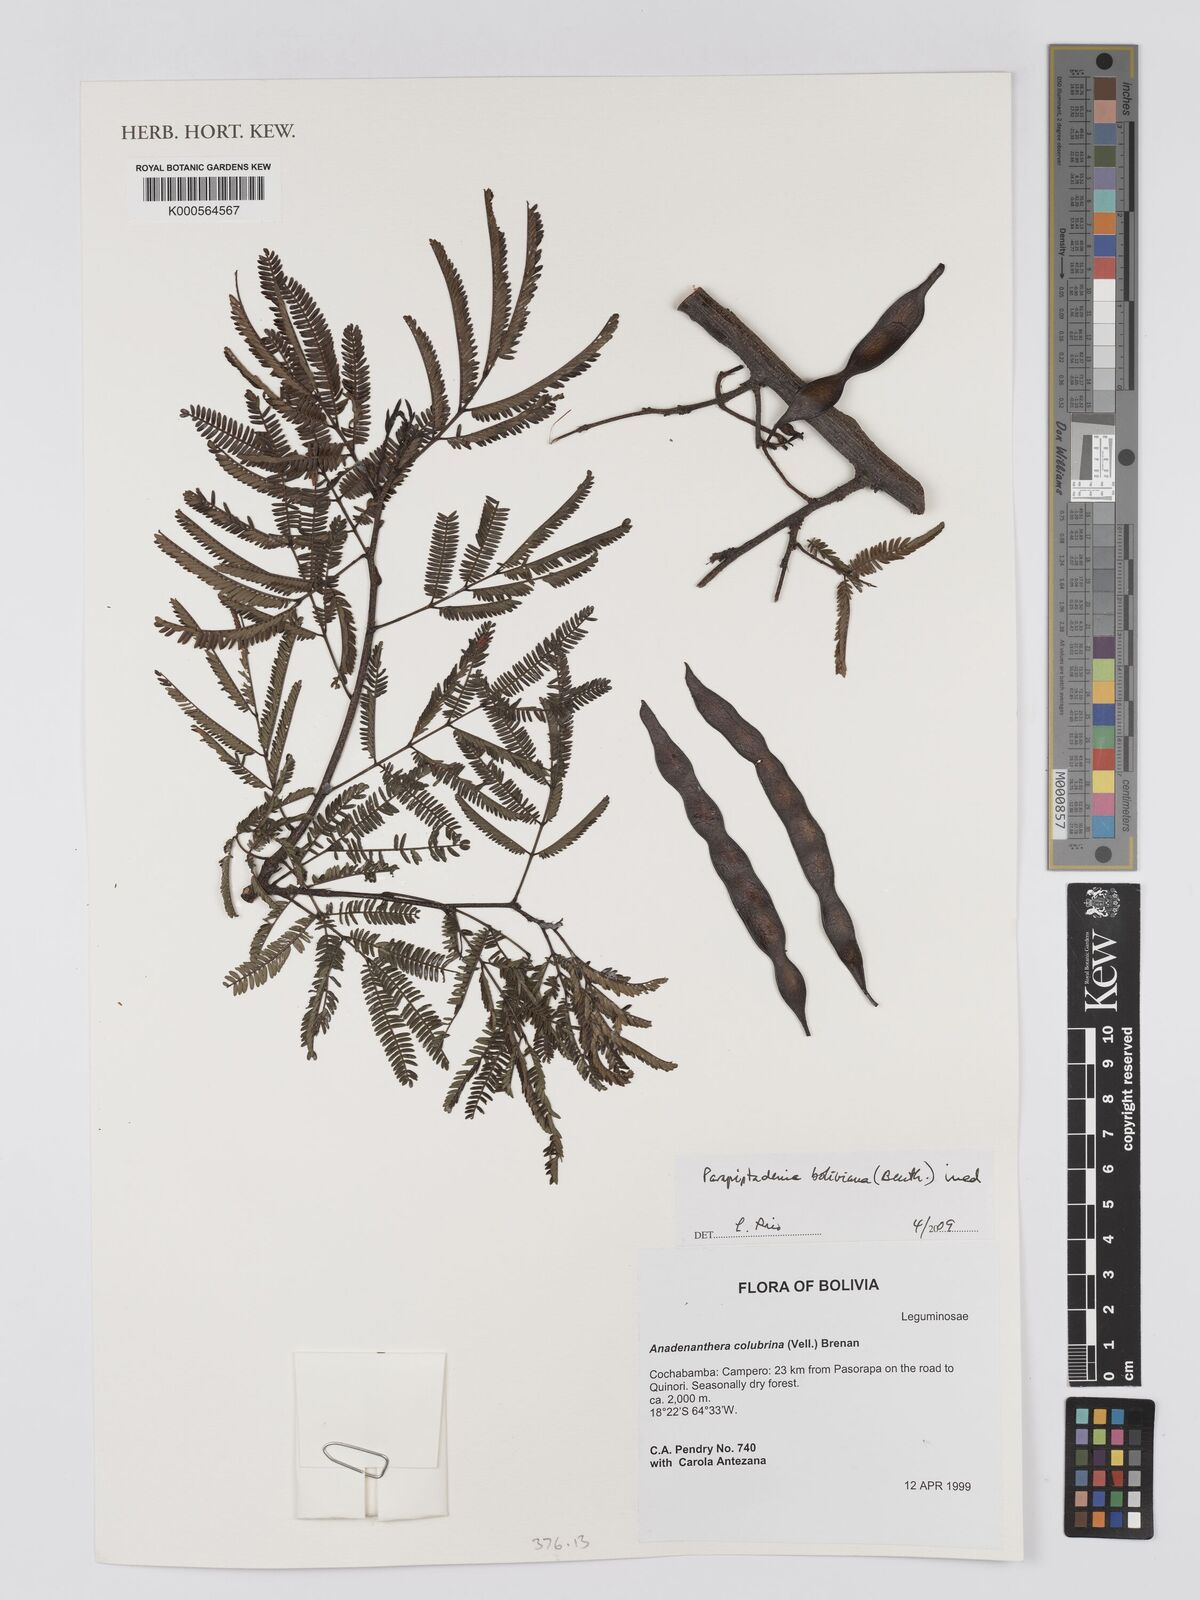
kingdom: Plantae
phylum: Tracheophyta
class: Magnoliopsida
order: Fabales
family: Fabaceae
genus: Parapiptadenia
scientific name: Parapiptadenia
